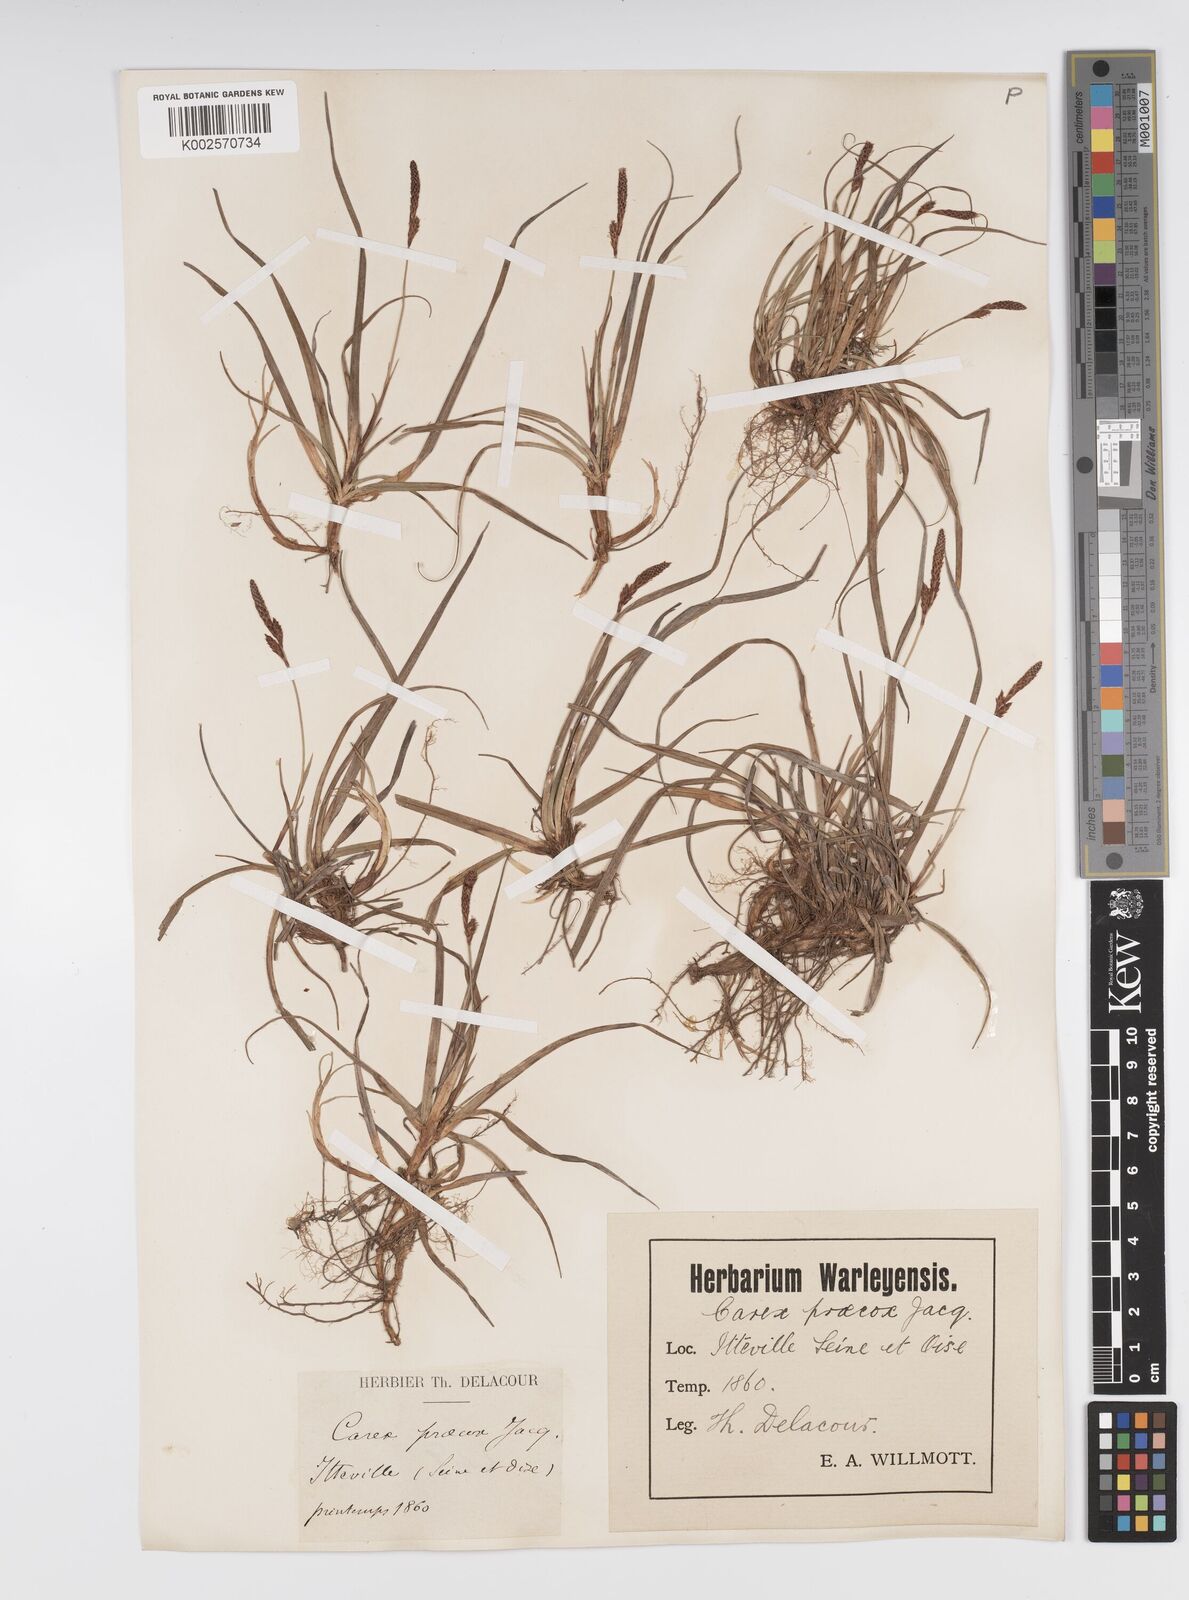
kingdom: Plantae
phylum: Tracheophyta
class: Liliopsida
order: Poales
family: Cyperaceae
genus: Carex
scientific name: Carex ericetorum
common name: Rare spring-sedge
